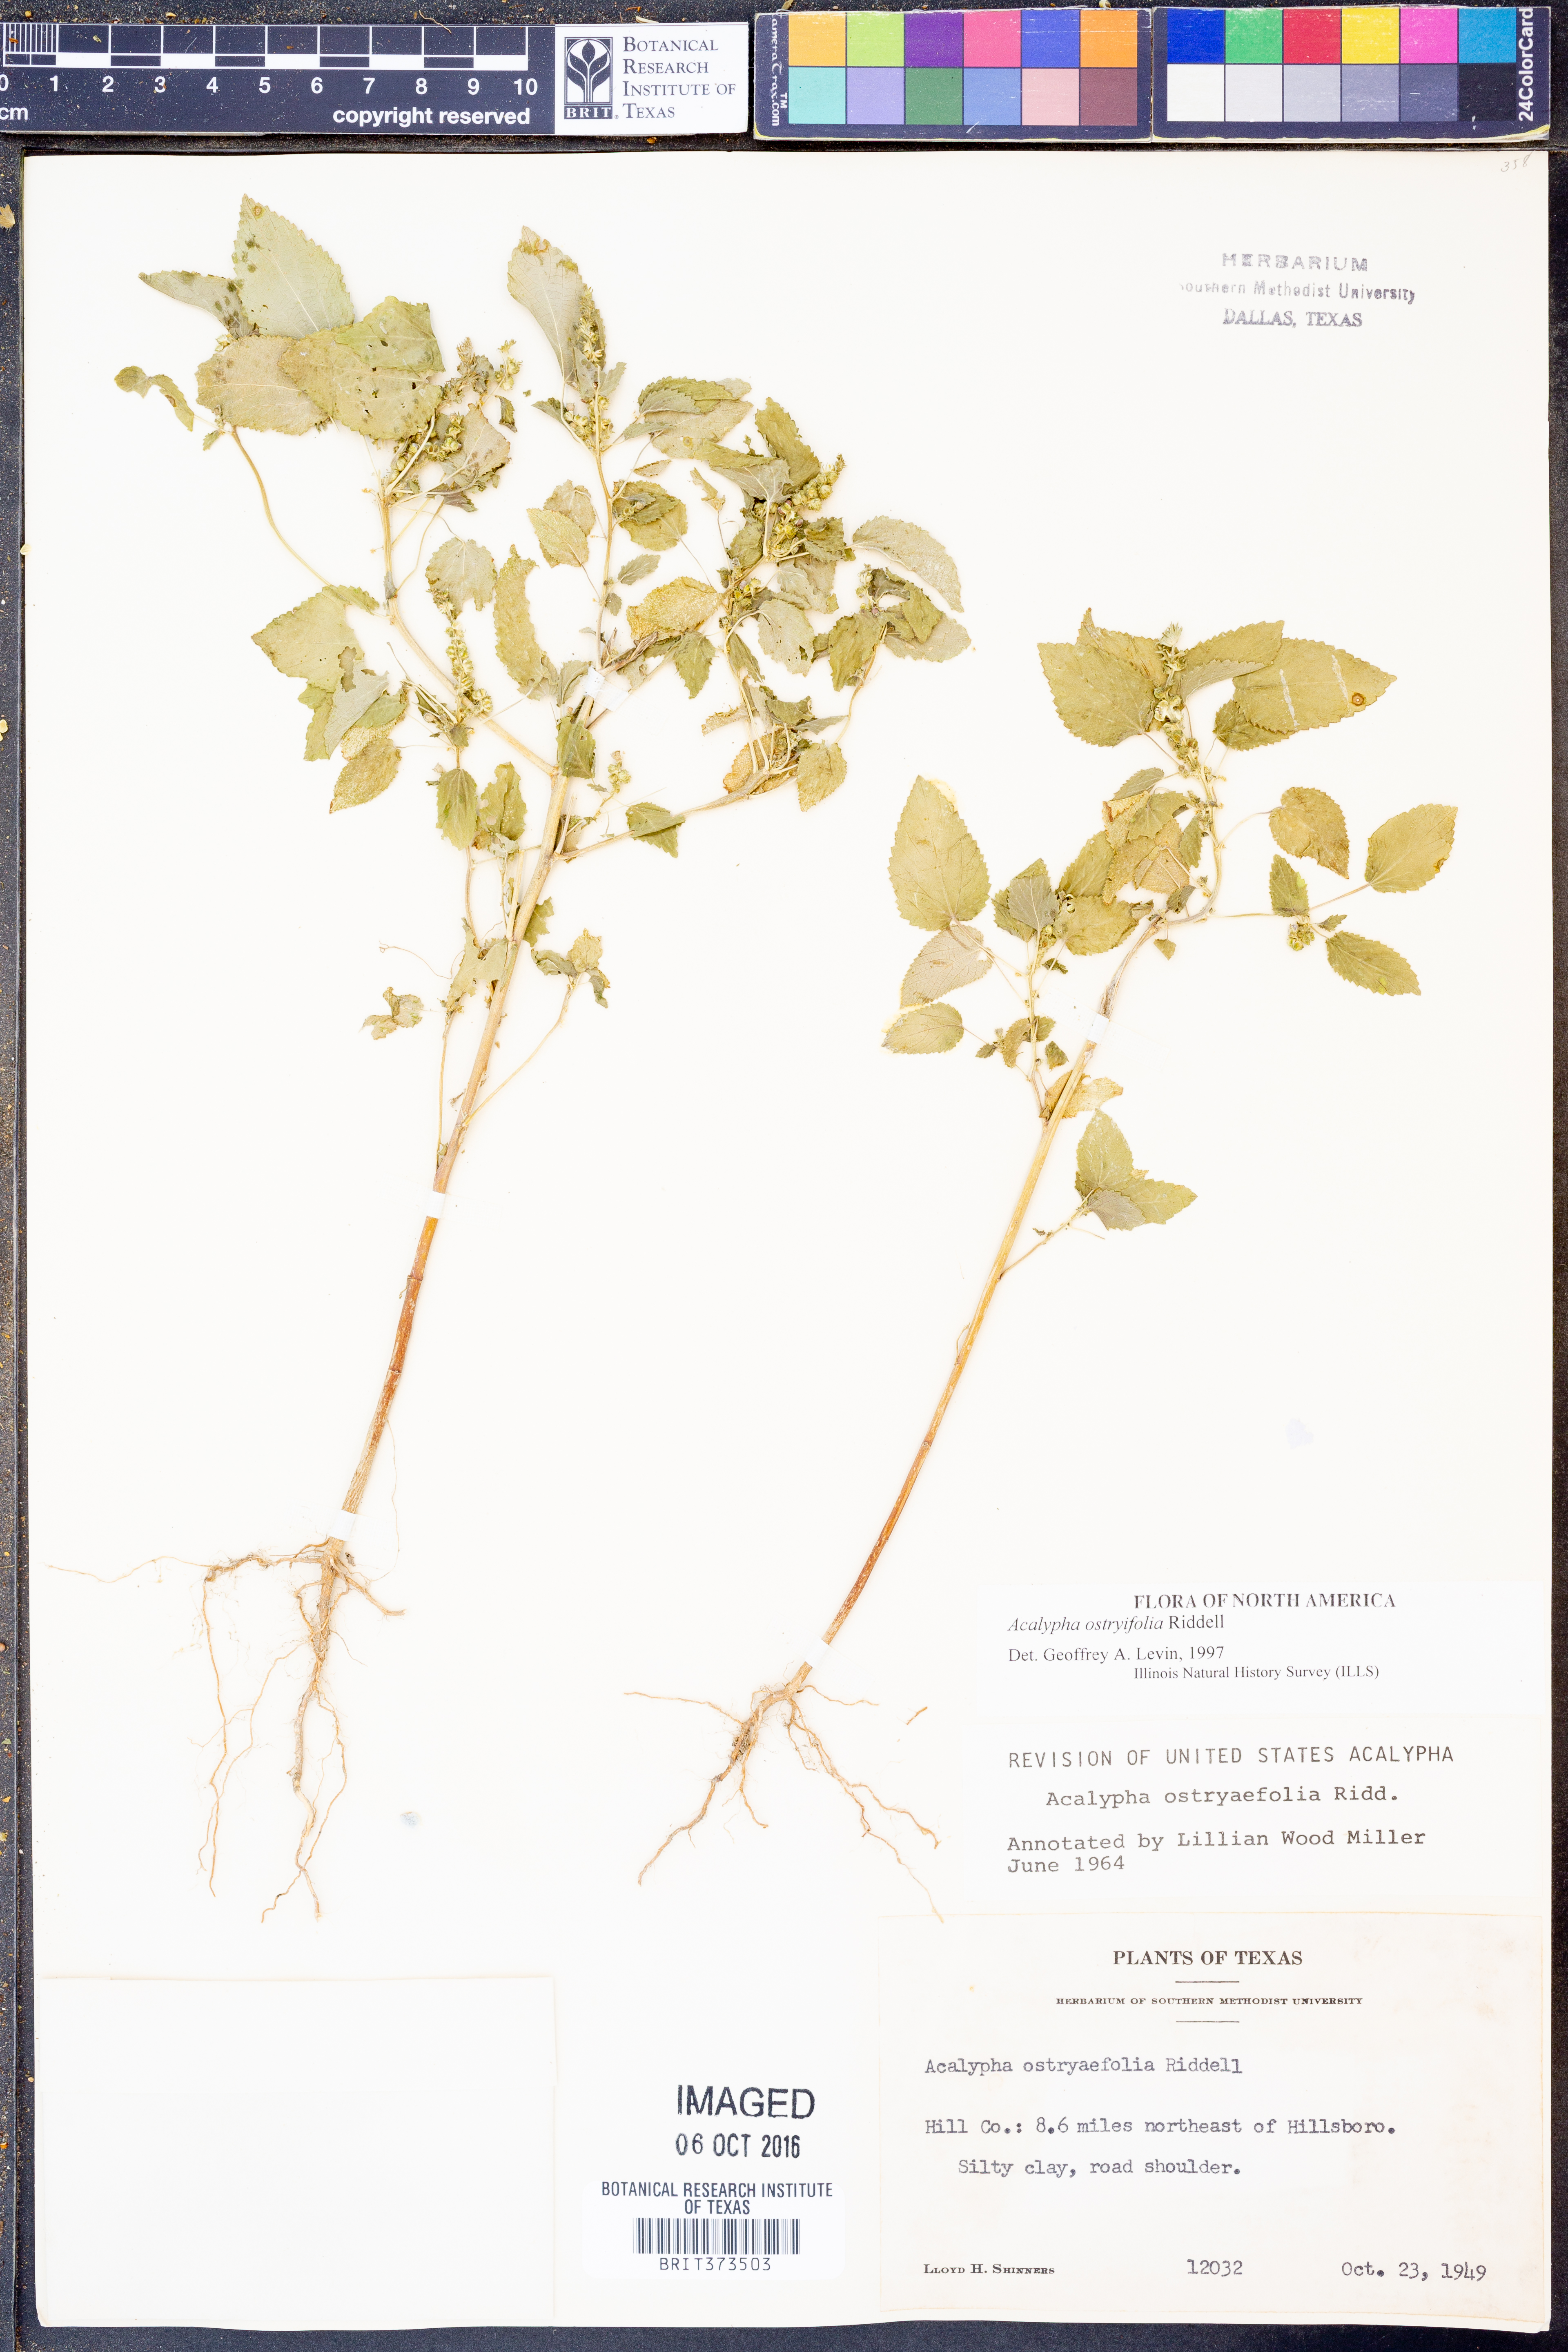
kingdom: Plantae
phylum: Tracheophyta
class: Magnoliopsida
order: Malpighiales
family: Euphorbiaceae
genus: Acalypha
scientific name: Acalypha persimilis
